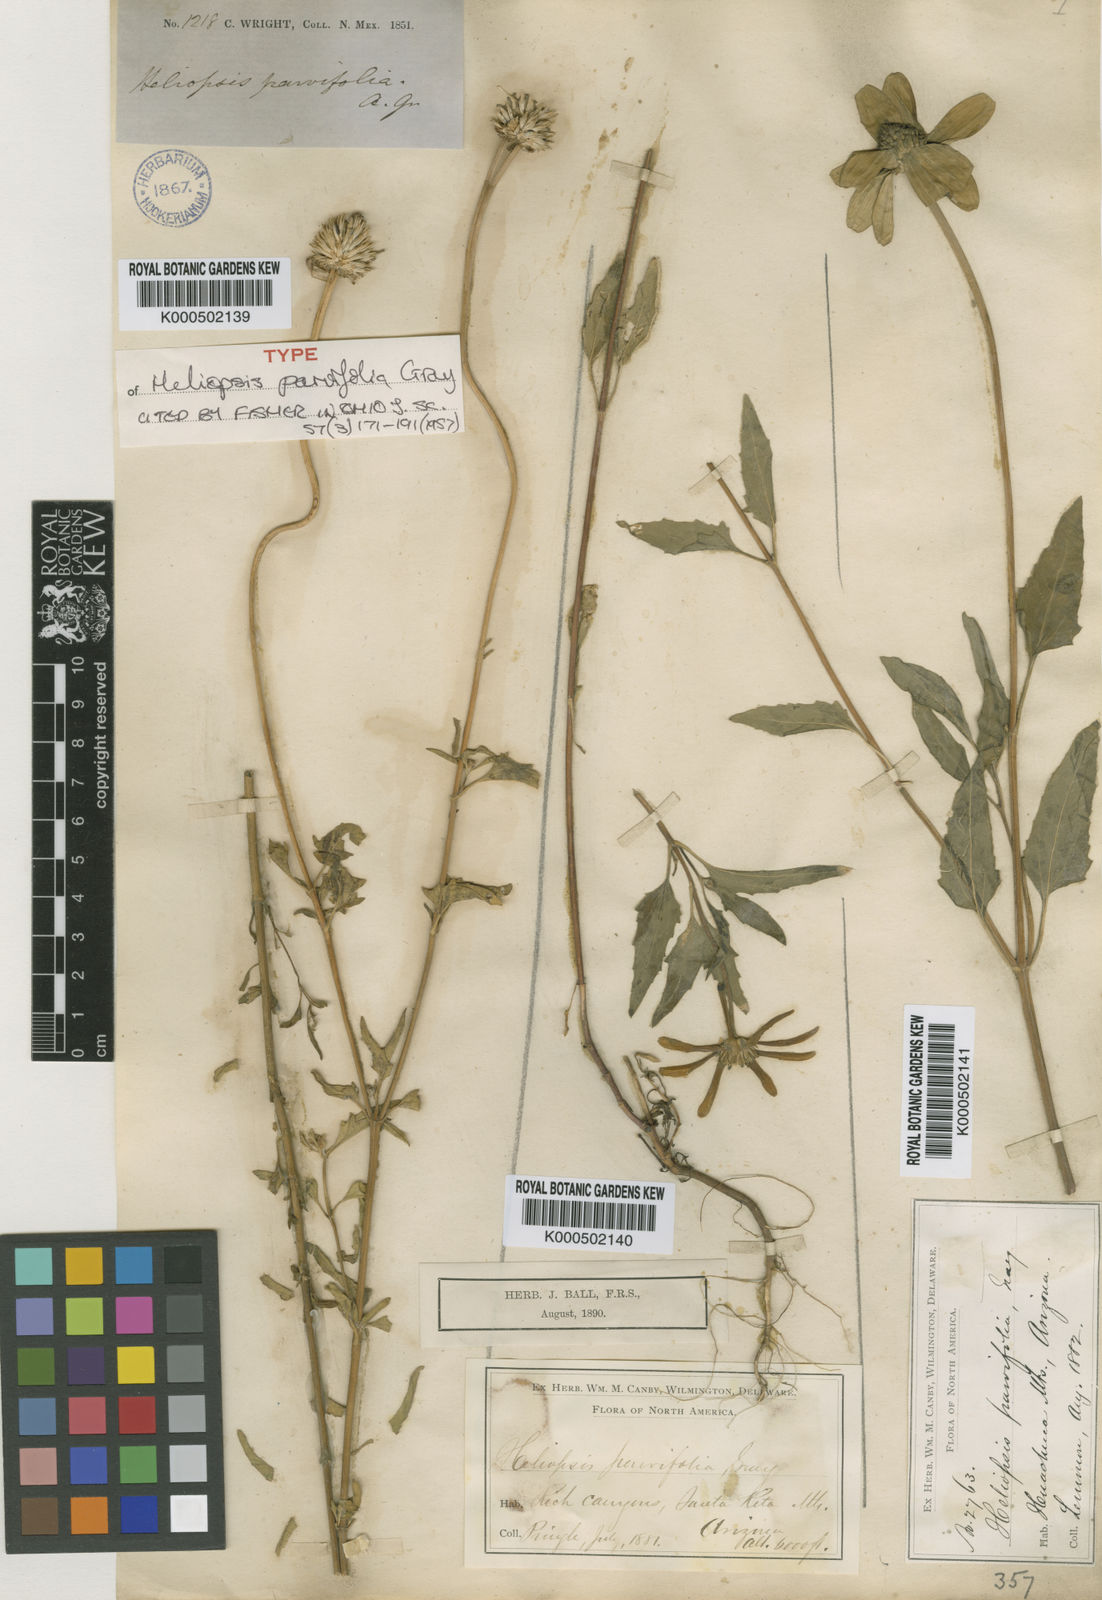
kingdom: Plantae
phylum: Tracheophyta
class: Magnoliopsida
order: Asterales
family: Asteraceae
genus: Heliopsis
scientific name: Heliopsis parvifolia
